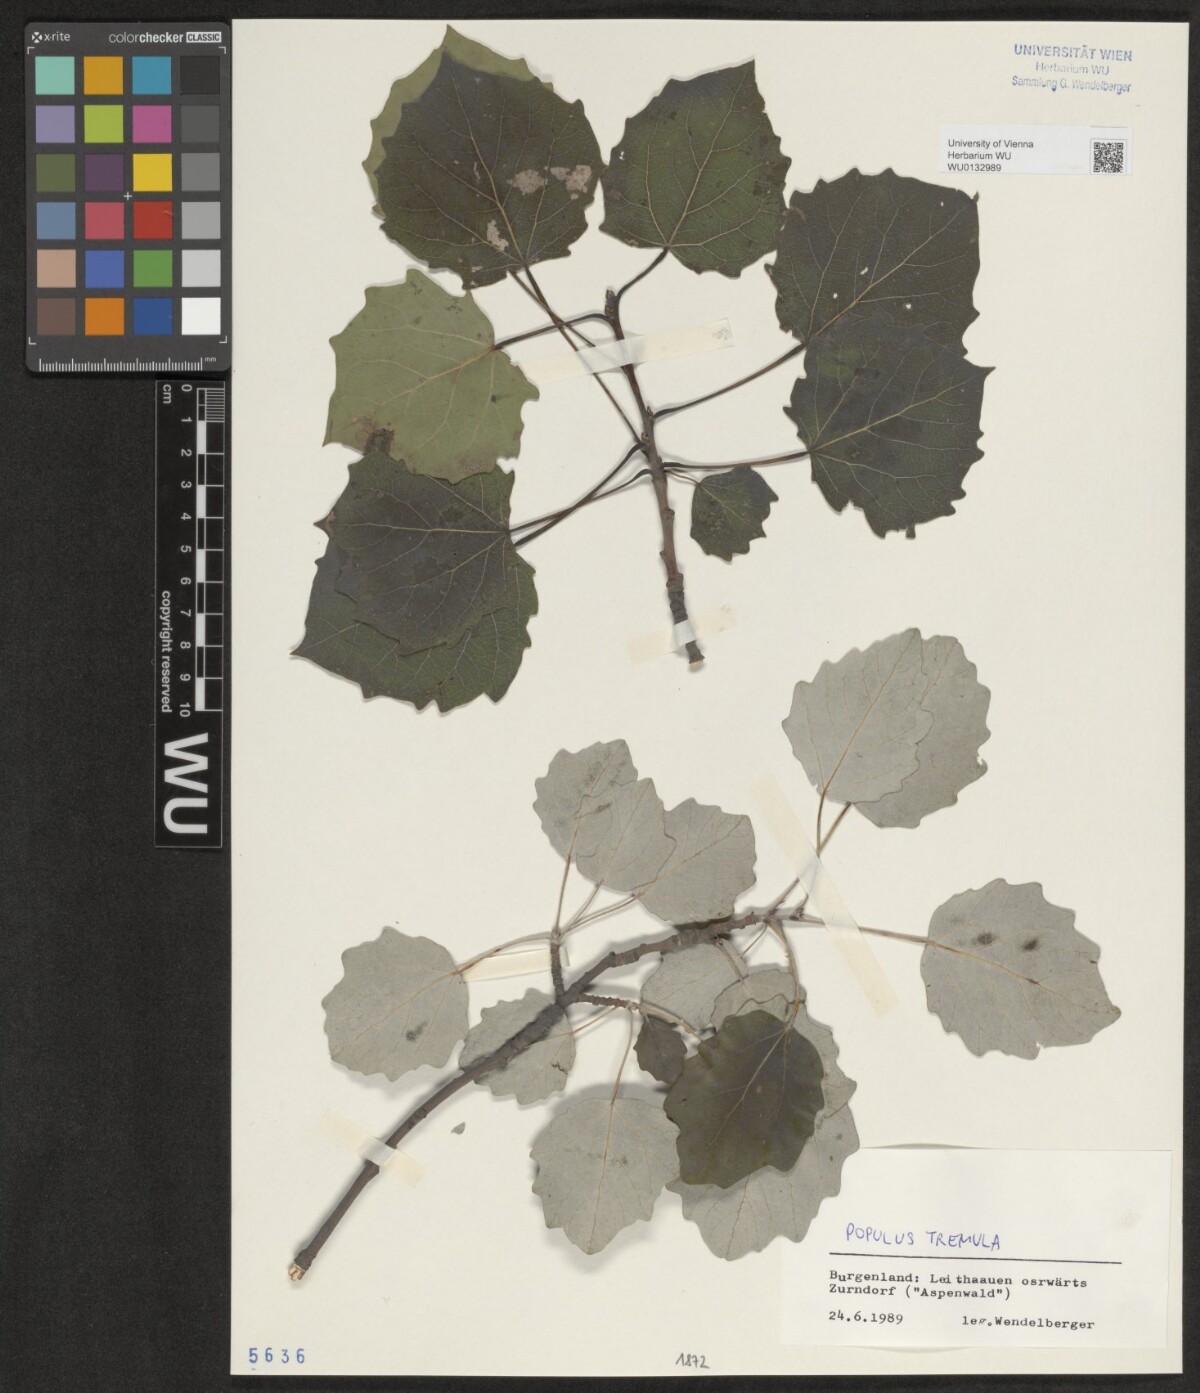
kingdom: Plantae
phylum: Tracheophyta
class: Magnoliopsida
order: Malpighiales
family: Salicaceae
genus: Populus
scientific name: Populus tremula
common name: European aspen
